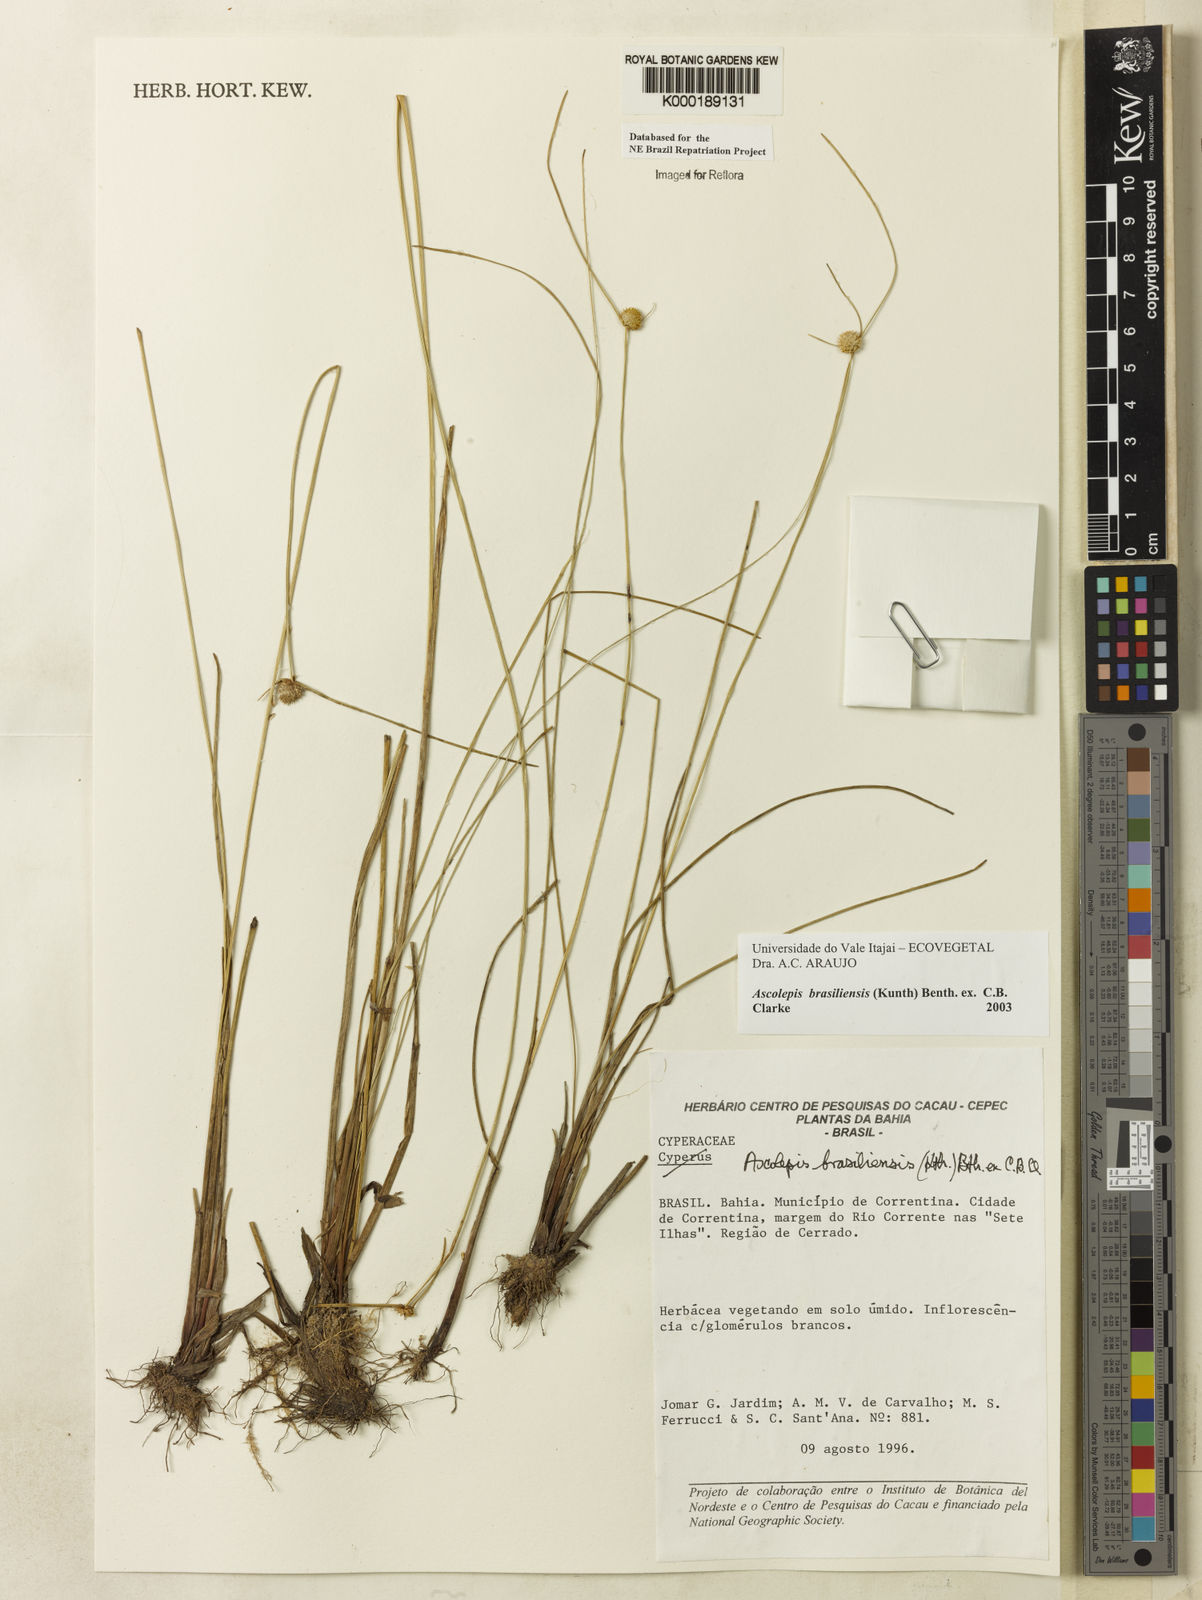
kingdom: Plantae
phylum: Tracheophyta
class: Liliopsida
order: Poales
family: Cyperaceae
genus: Cyperus
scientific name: Cyperus brasiliensis
